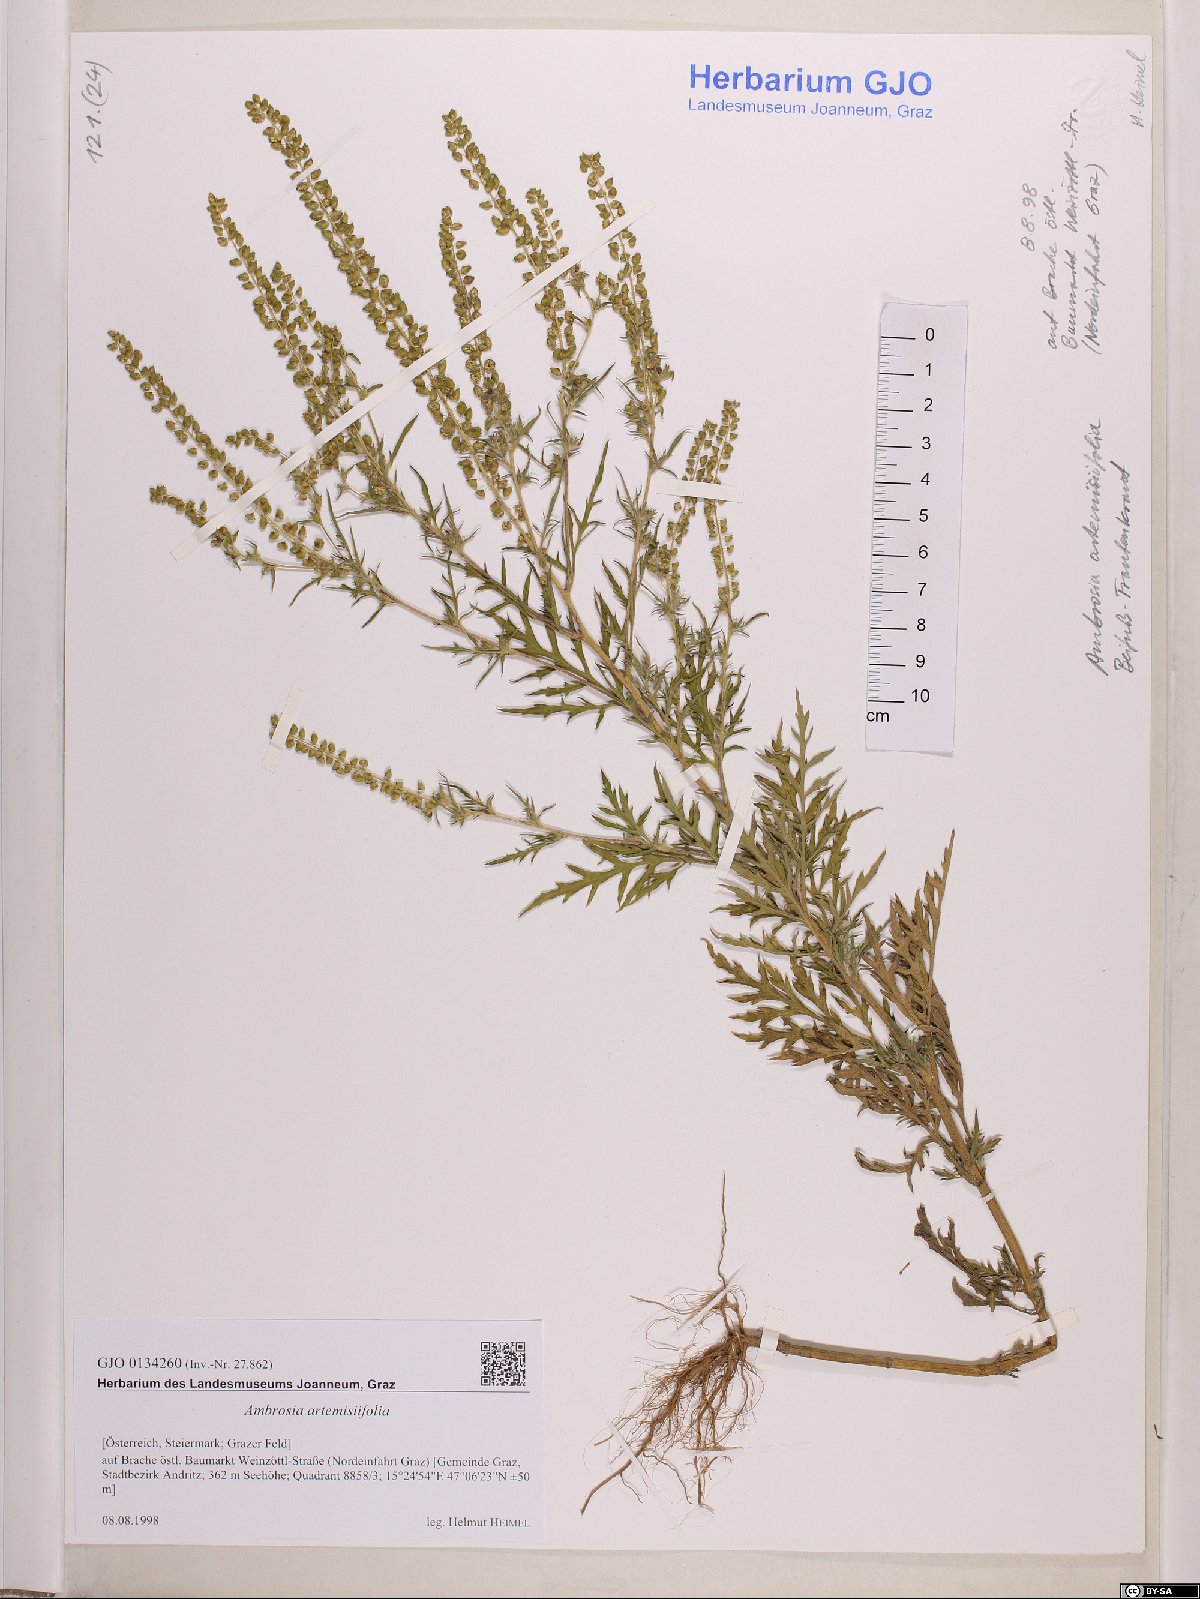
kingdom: Plantae
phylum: Tracheophyta
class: Magnoliopsida
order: Asterales
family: Asteraceae
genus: Ambrosia
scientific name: Ambrosia artemisiifolia
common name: Annual ragweed
